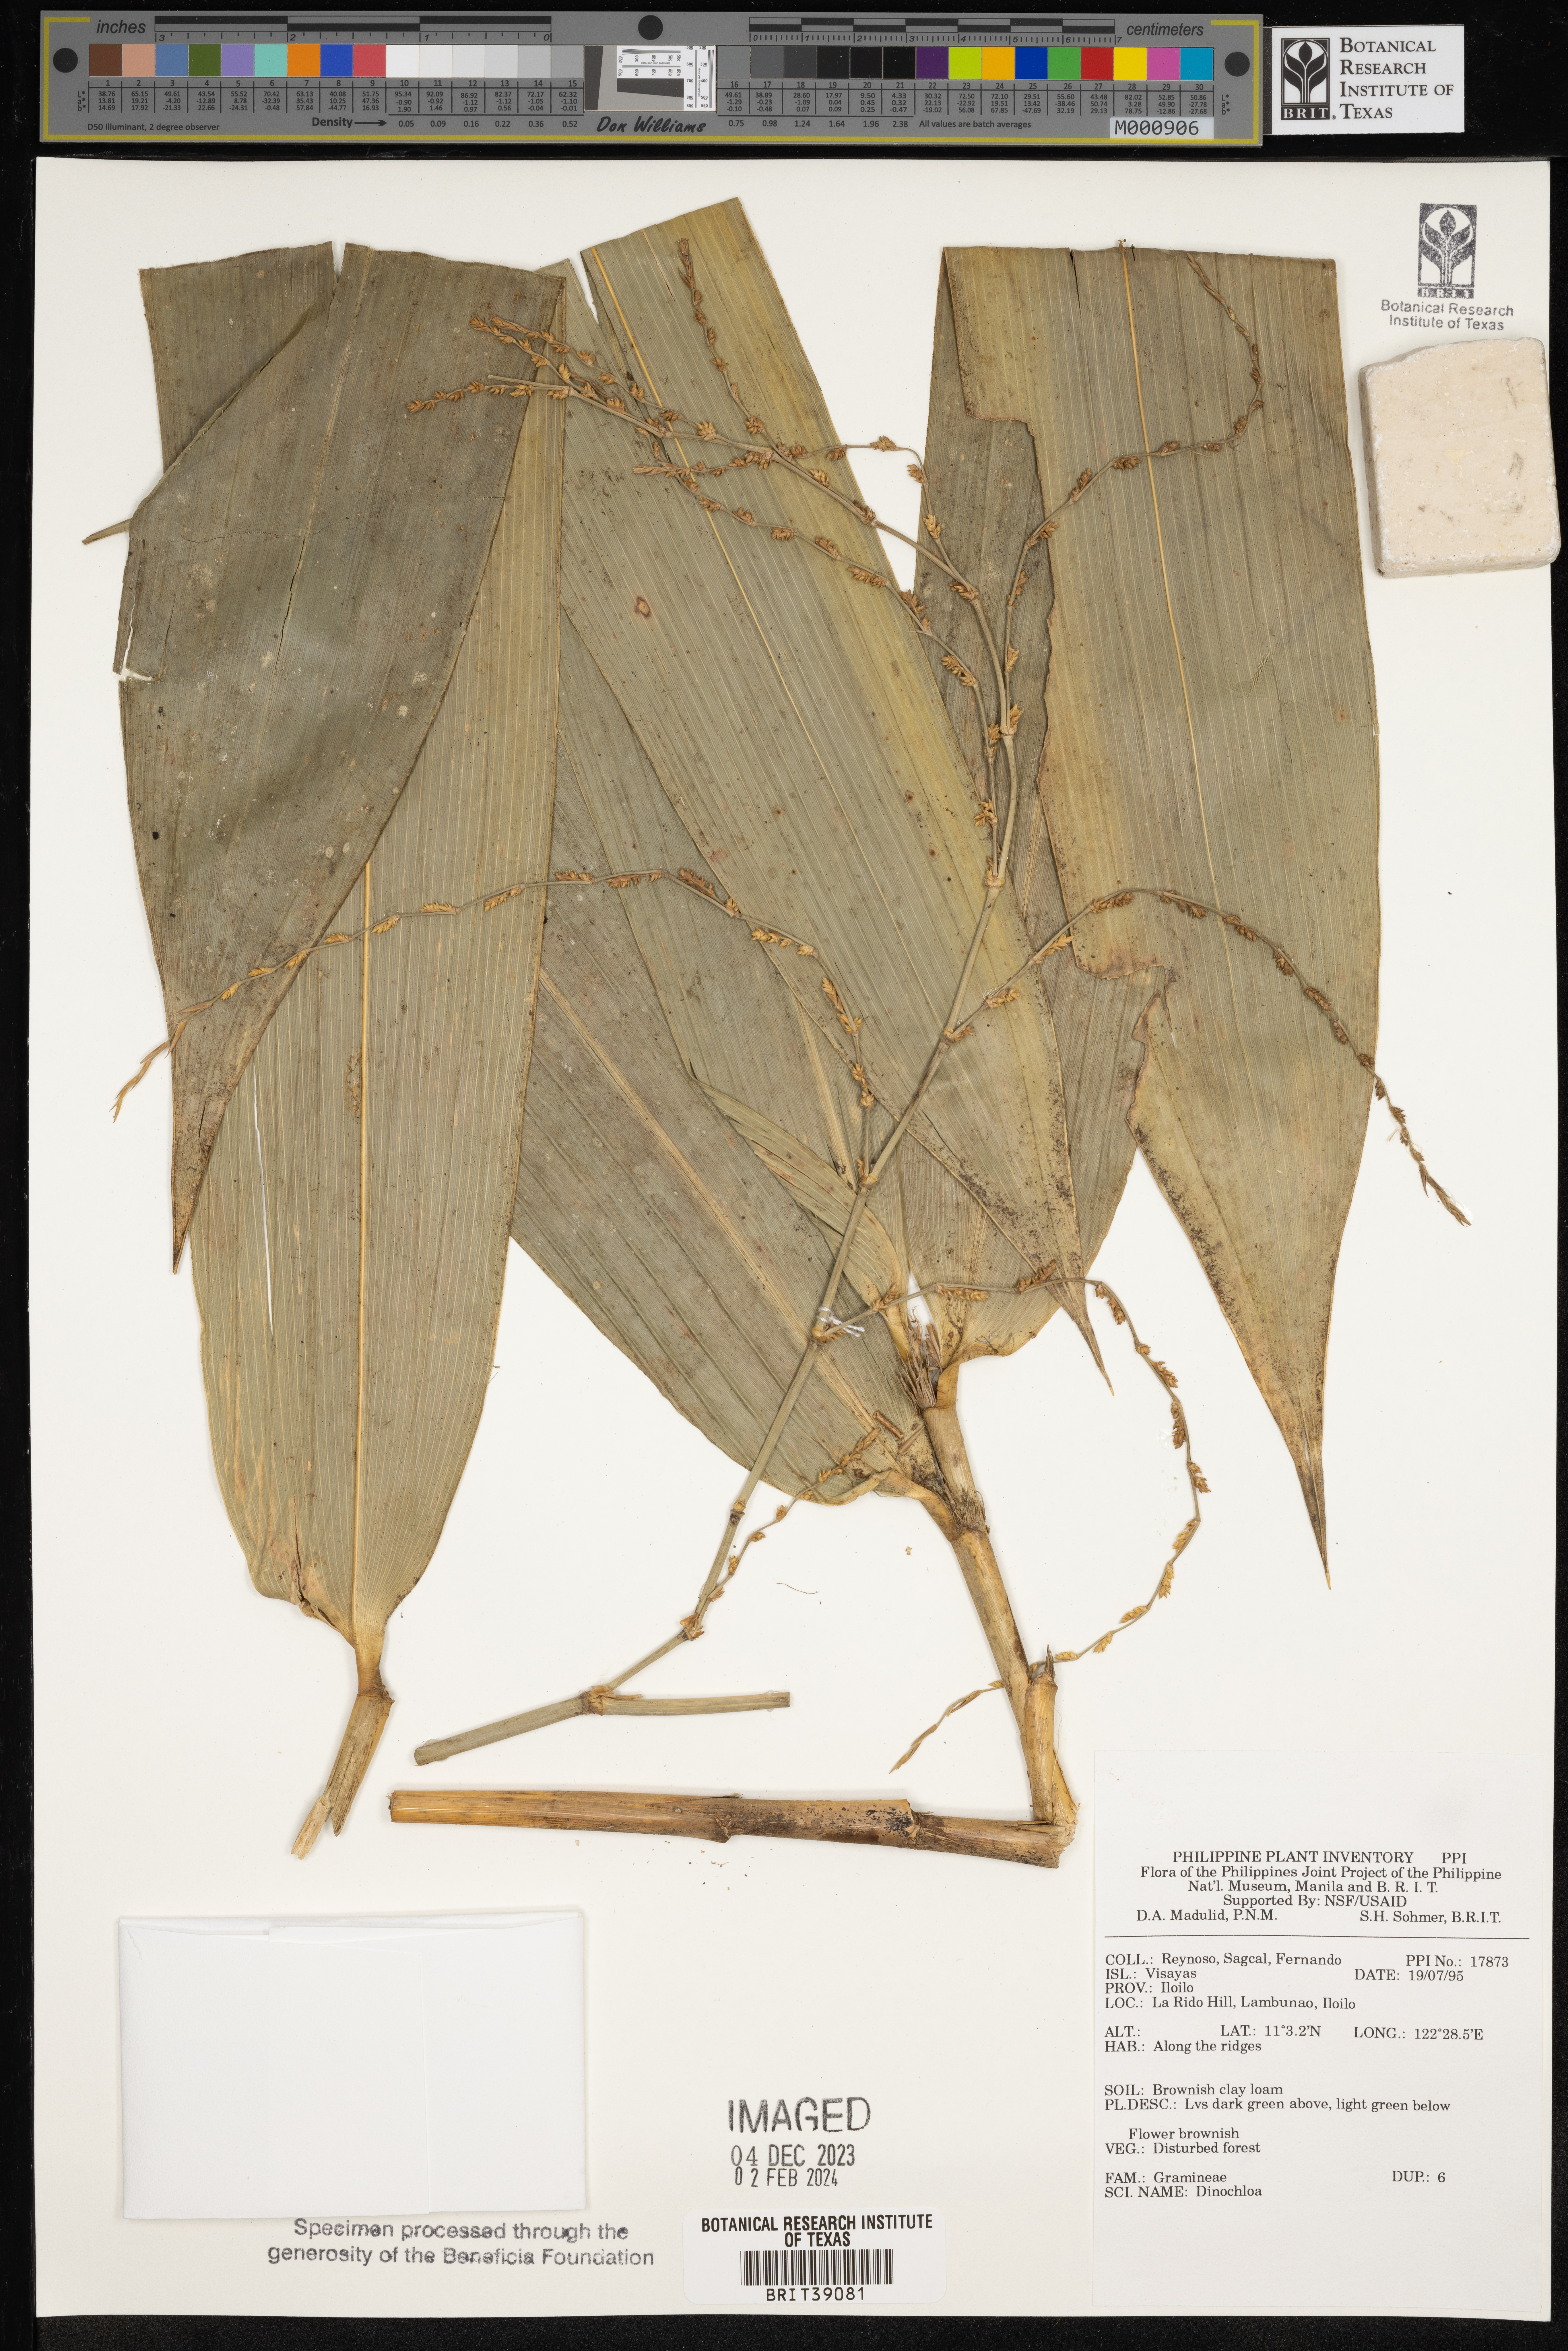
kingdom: Plantae
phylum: Tracheophyta
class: Liliopsida
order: Poales
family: Poaceae
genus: Dinochloa
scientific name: Dinochloa
